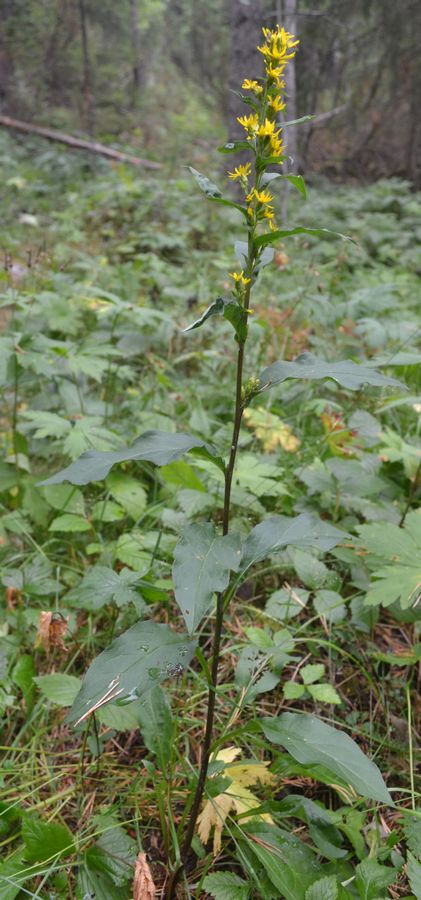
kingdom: Plantae
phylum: Tracheophyta
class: Magnoliopsida
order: Asterales
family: Asteraceae
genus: Solidago
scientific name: Solidago virgaurea
